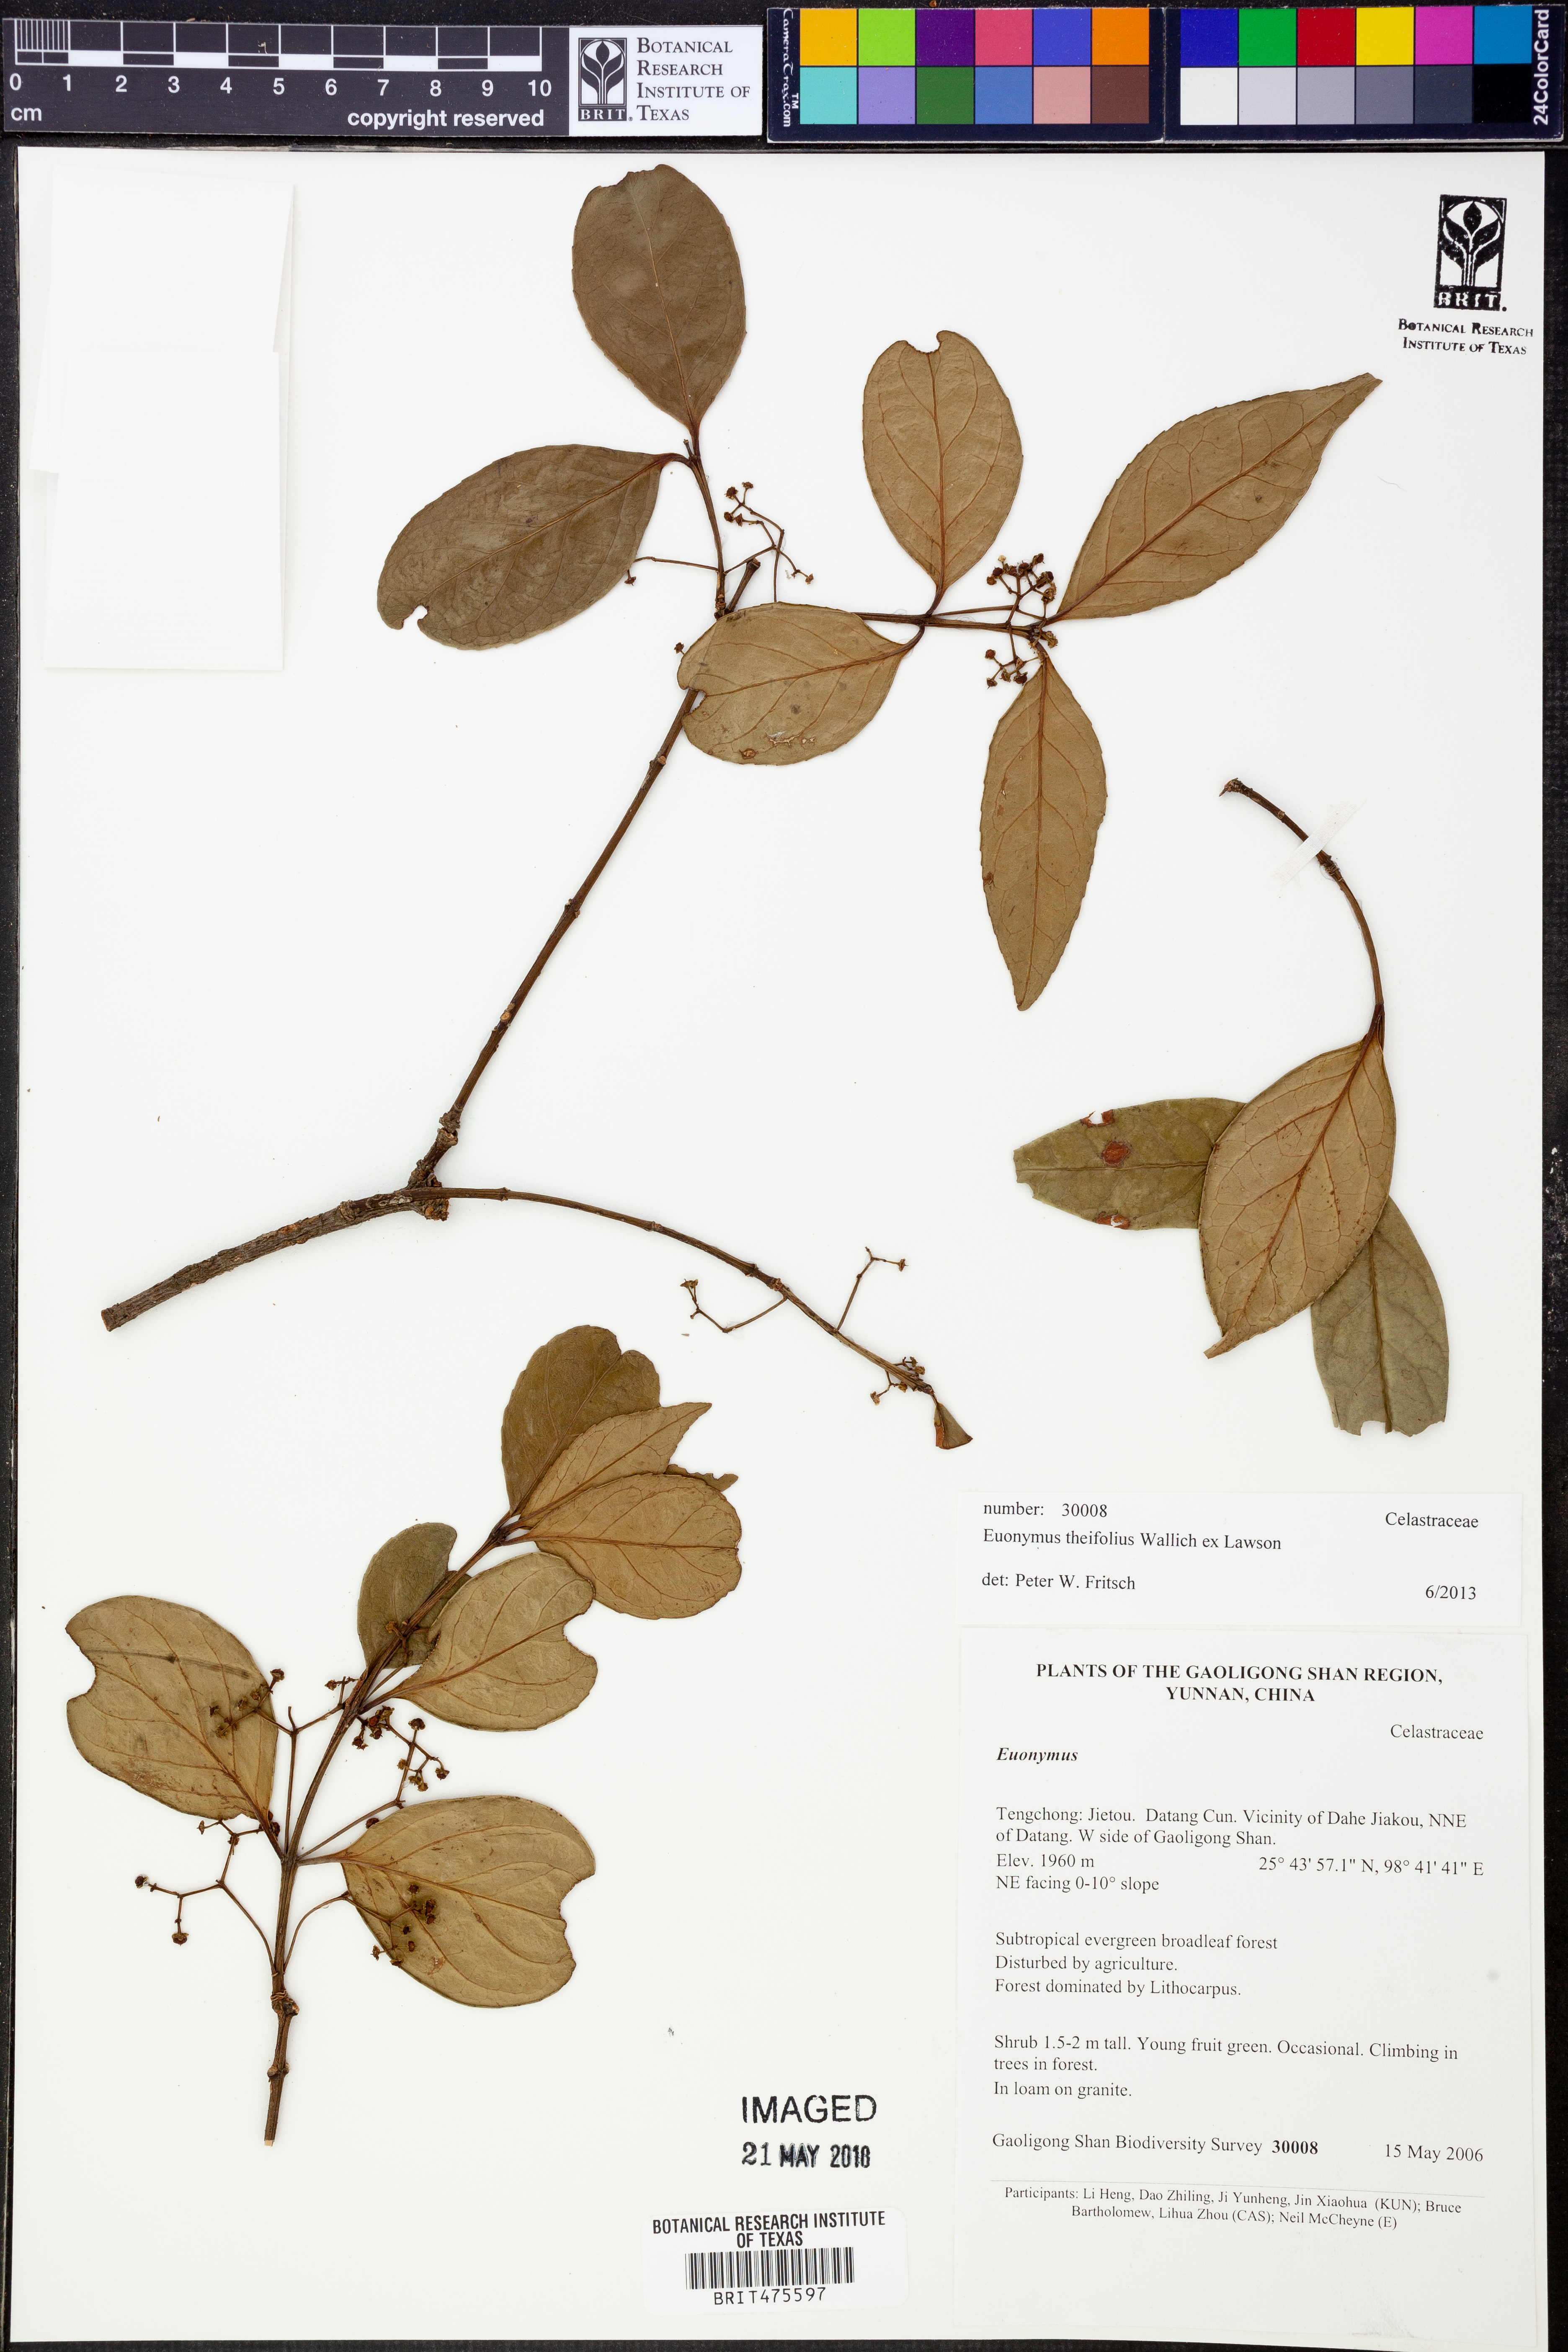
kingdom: Plantae
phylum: Tracheophyta
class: Magnoliopsida
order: Celastrales
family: Celastraceae
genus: Euonymus
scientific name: Euonymus theifolius
